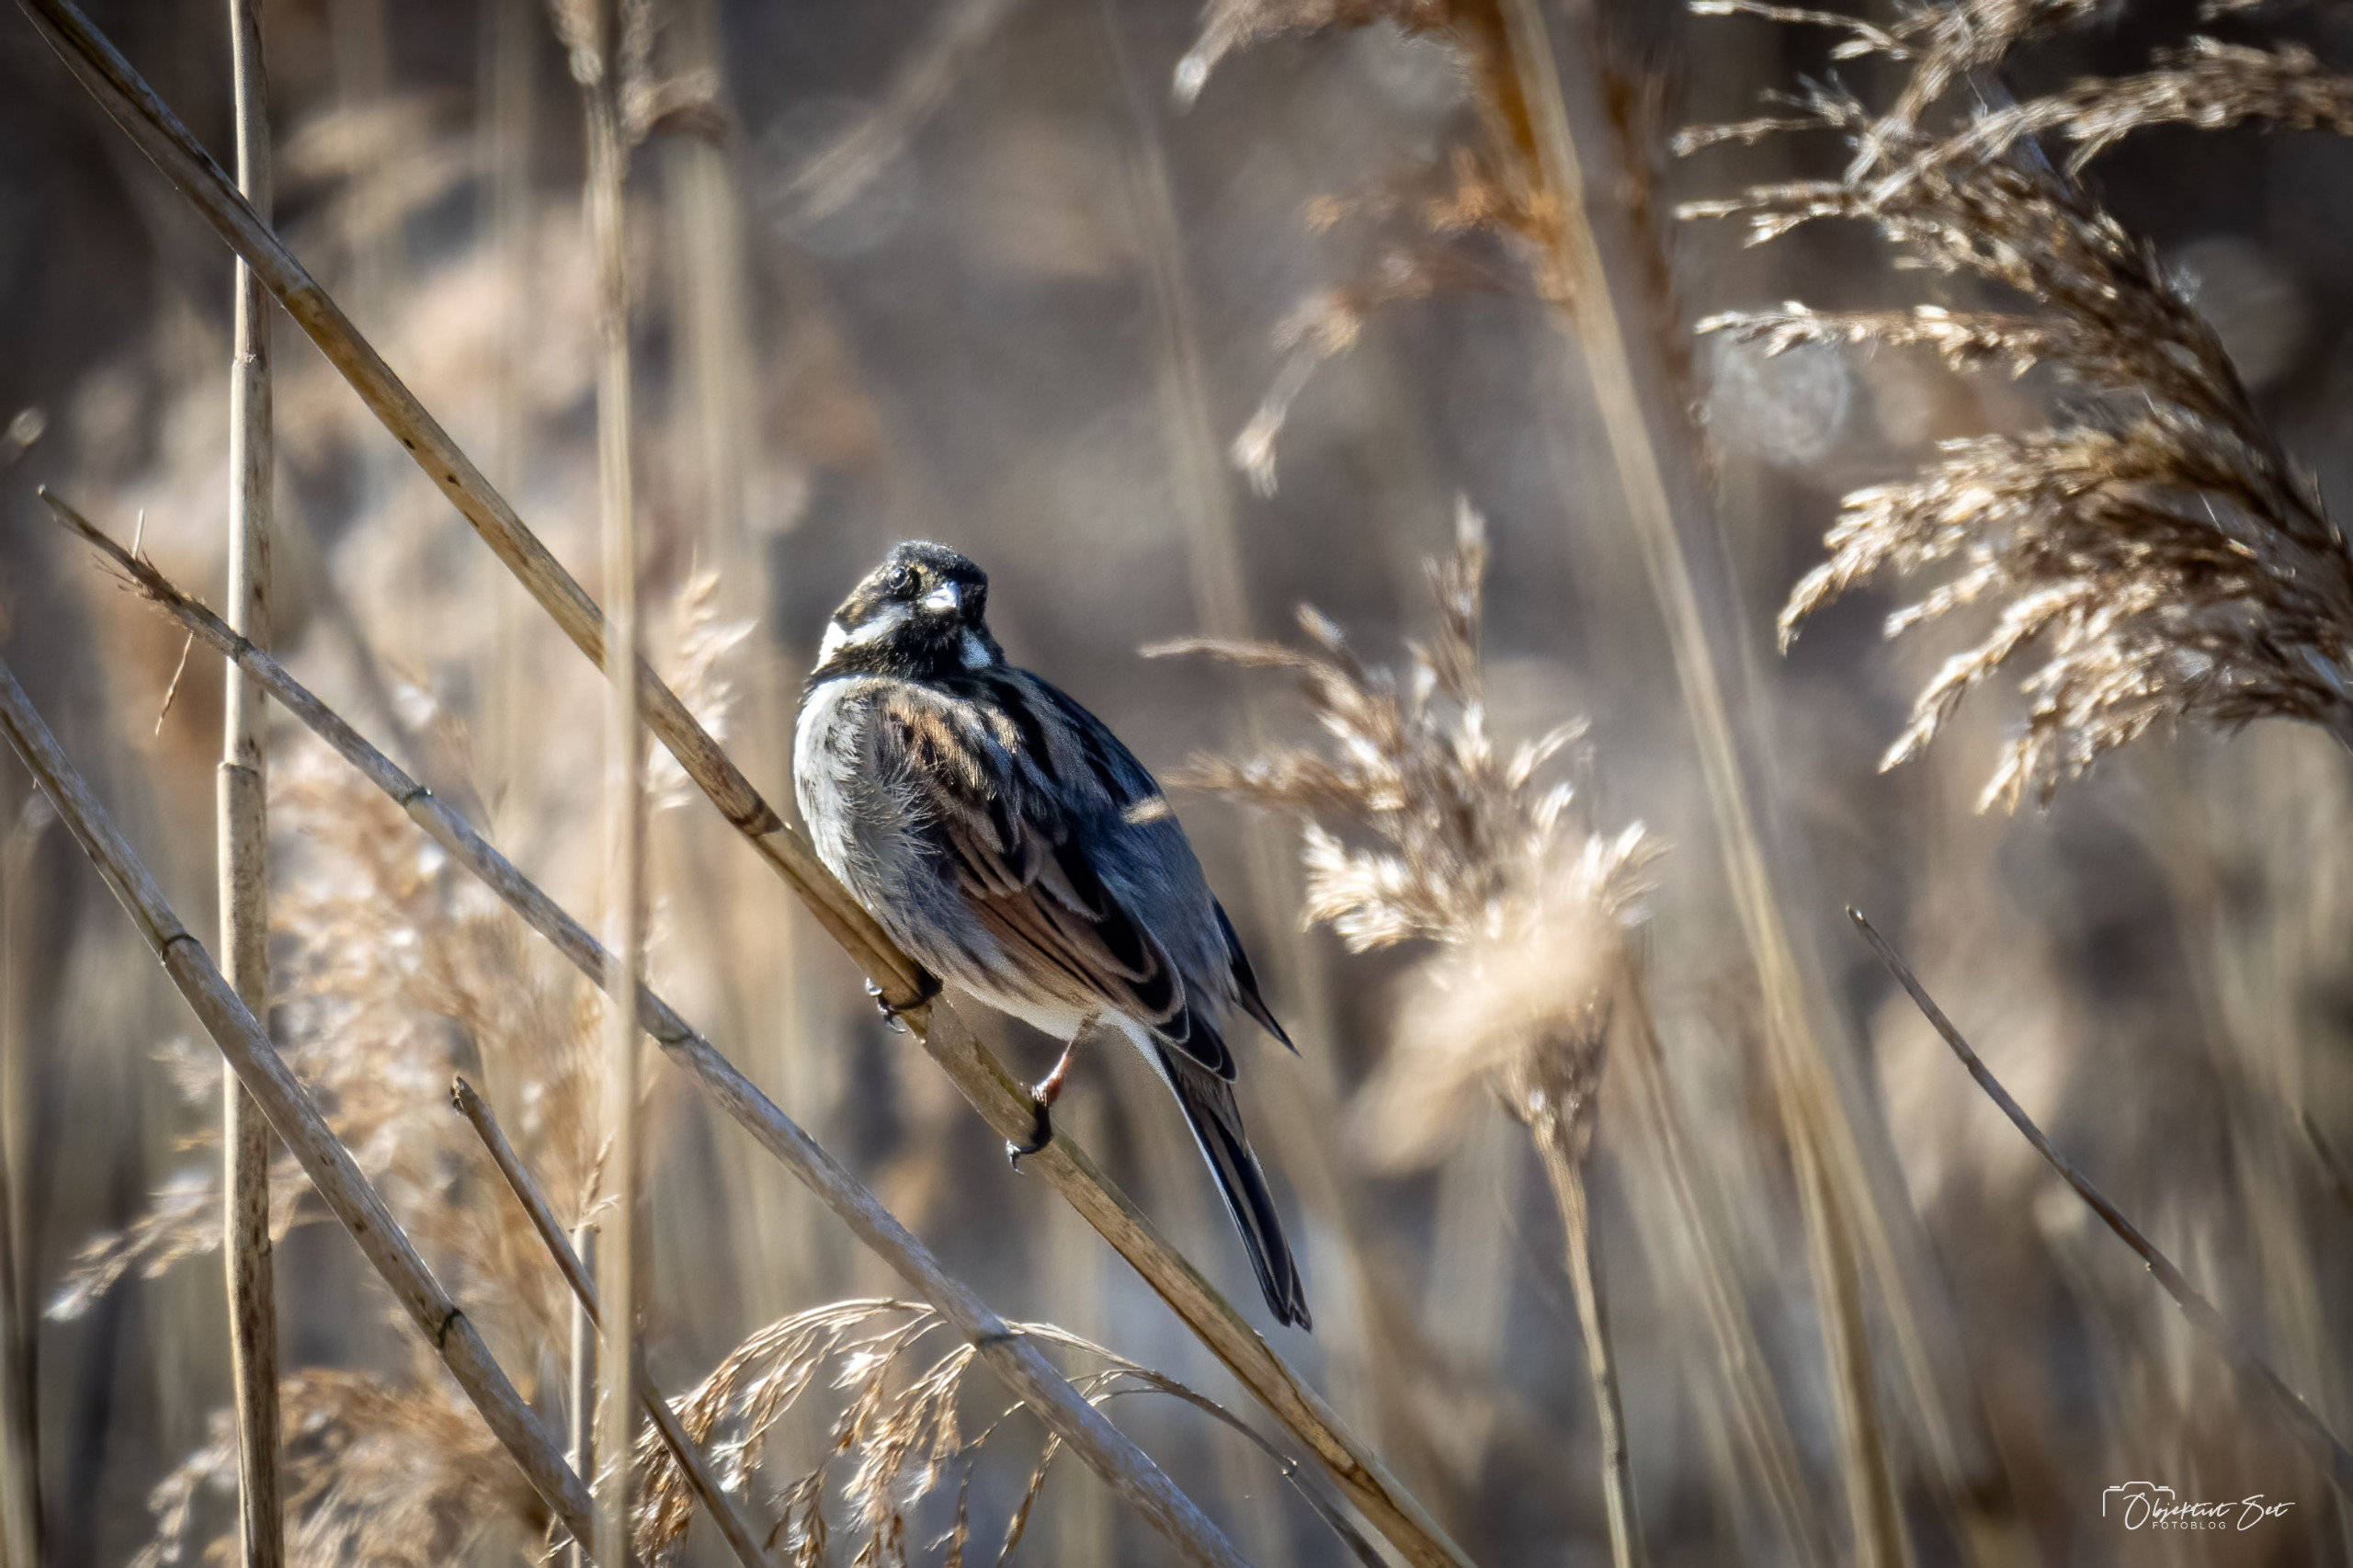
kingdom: Animalia
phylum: Chordata
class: Aves
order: Passeriformes
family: Emberizidae
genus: Emberiza
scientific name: Emberiza schoeniclus
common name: Rørspurv
